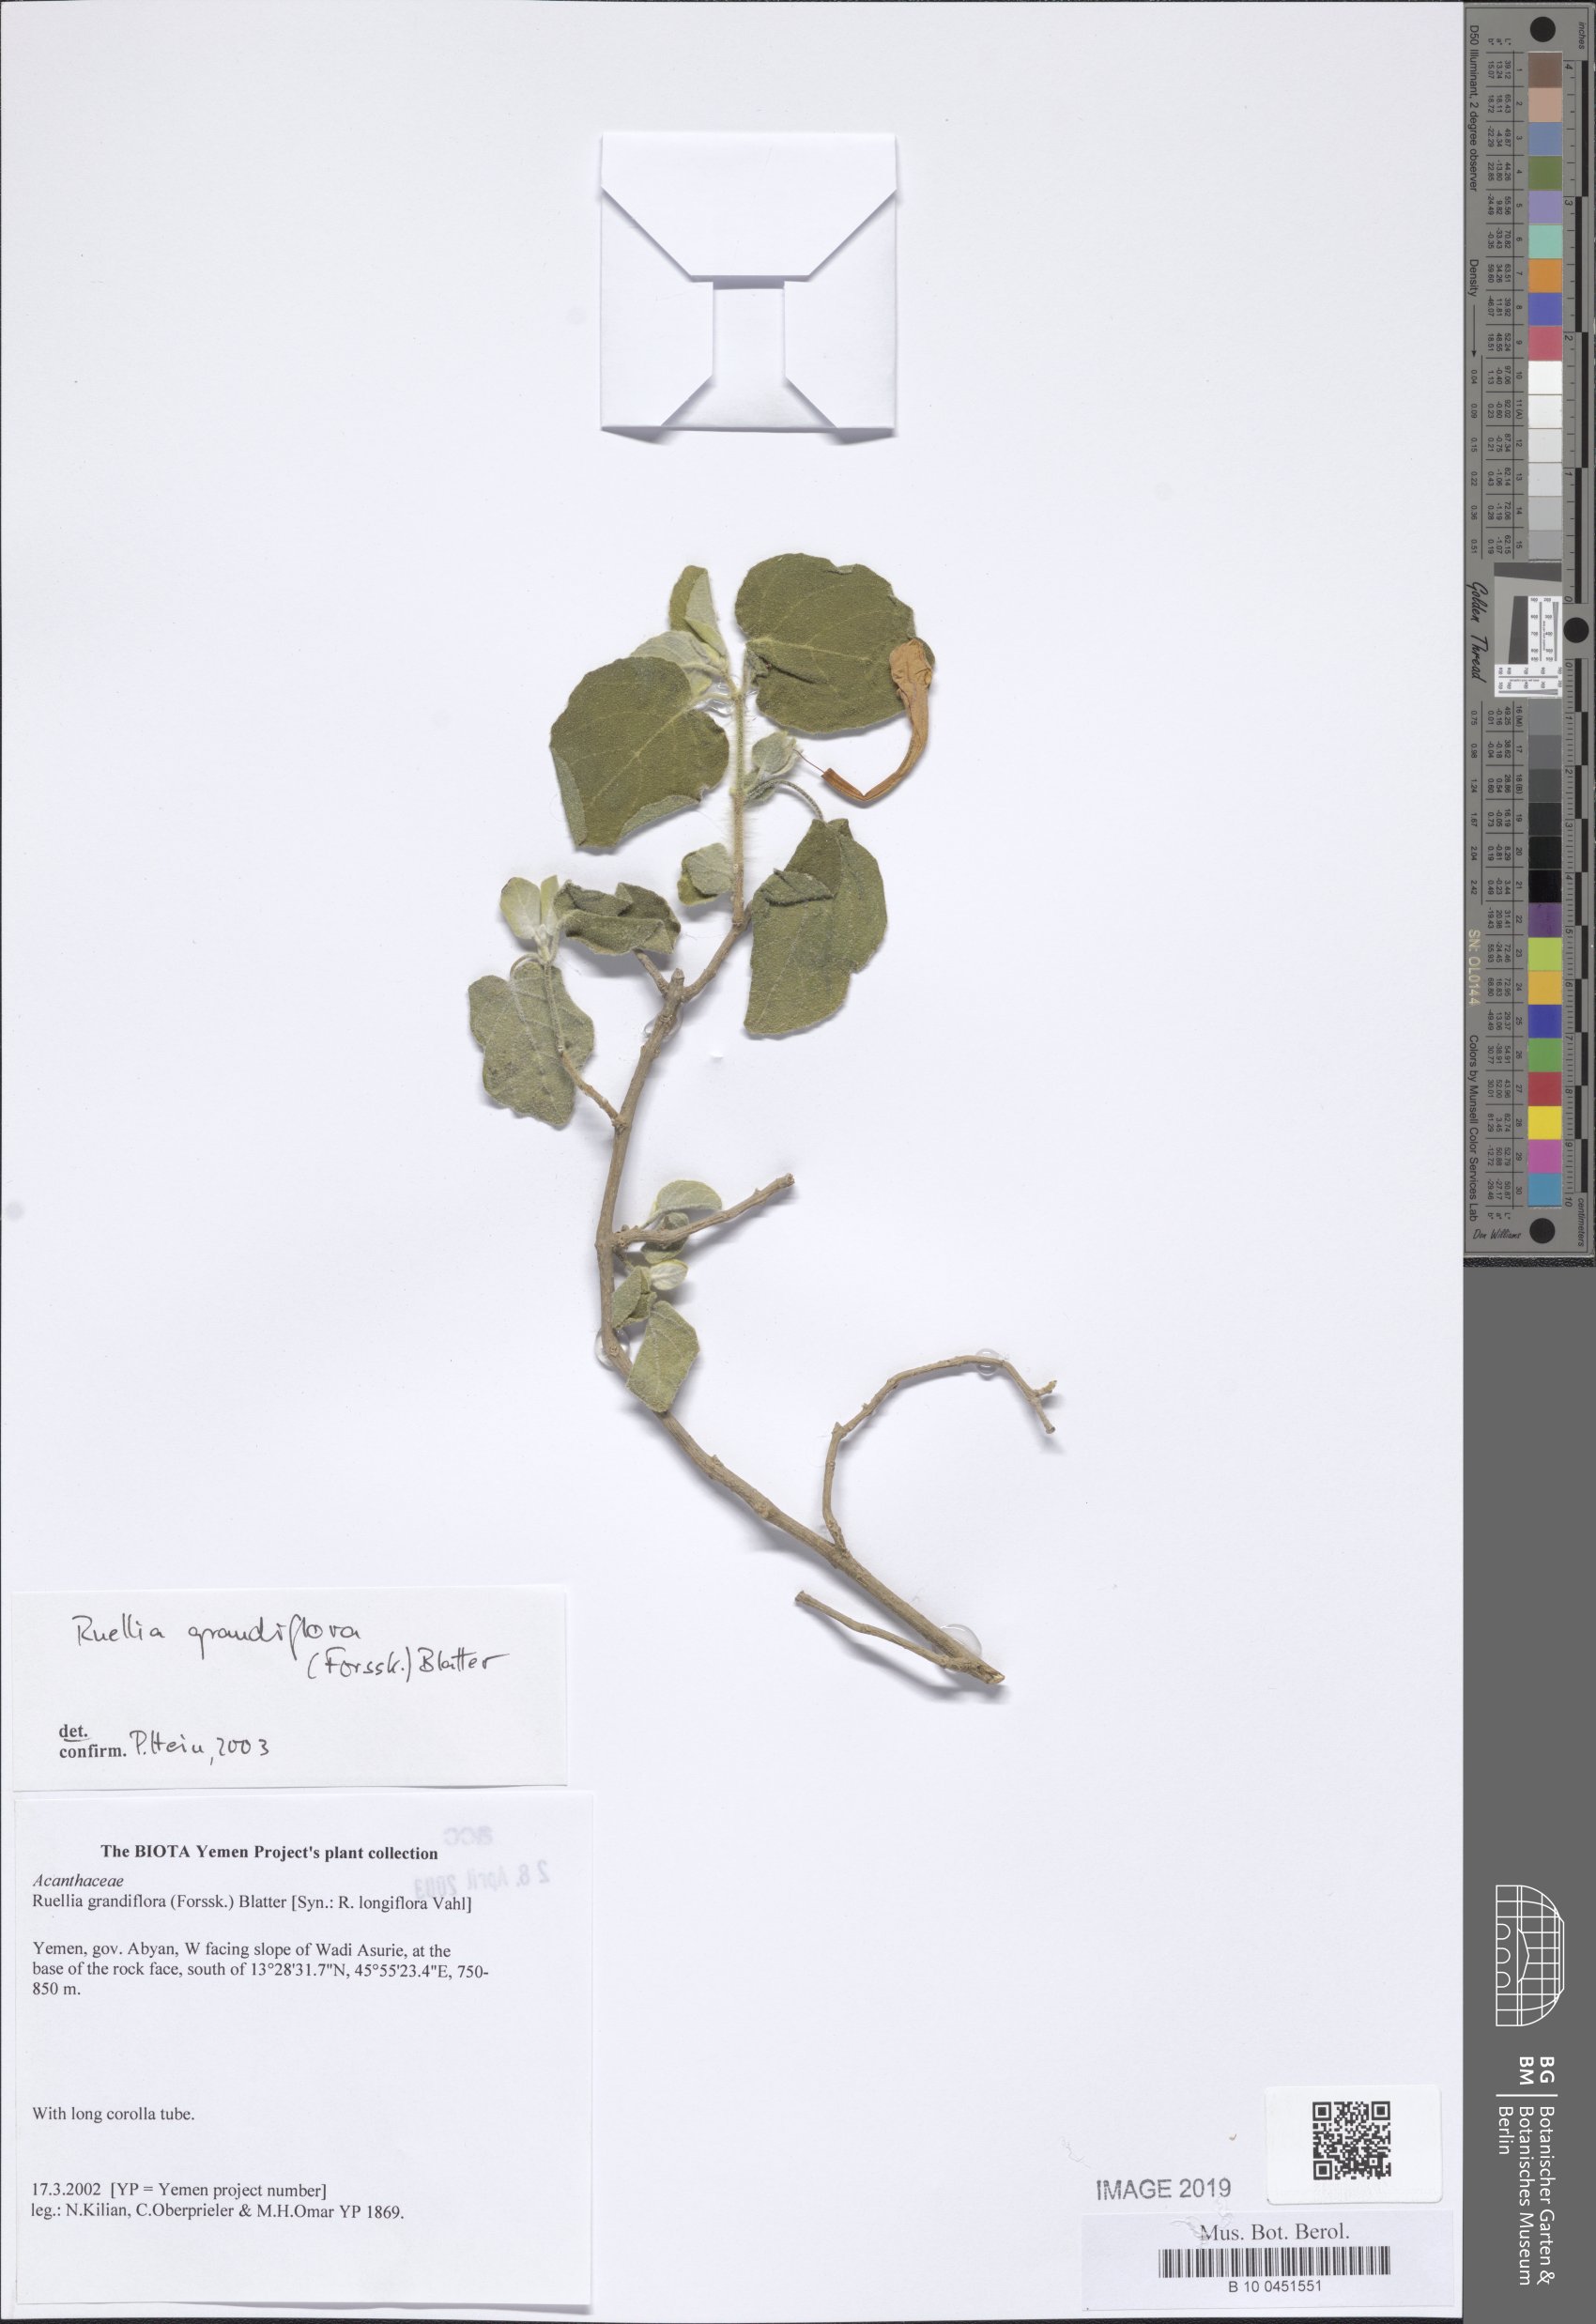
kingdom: Plantae
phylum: Tracheophyta
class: Magnoliopsida
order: Lamiales
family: Acanthaceae
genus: Ruellia
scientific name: Ruellia grandiflora
